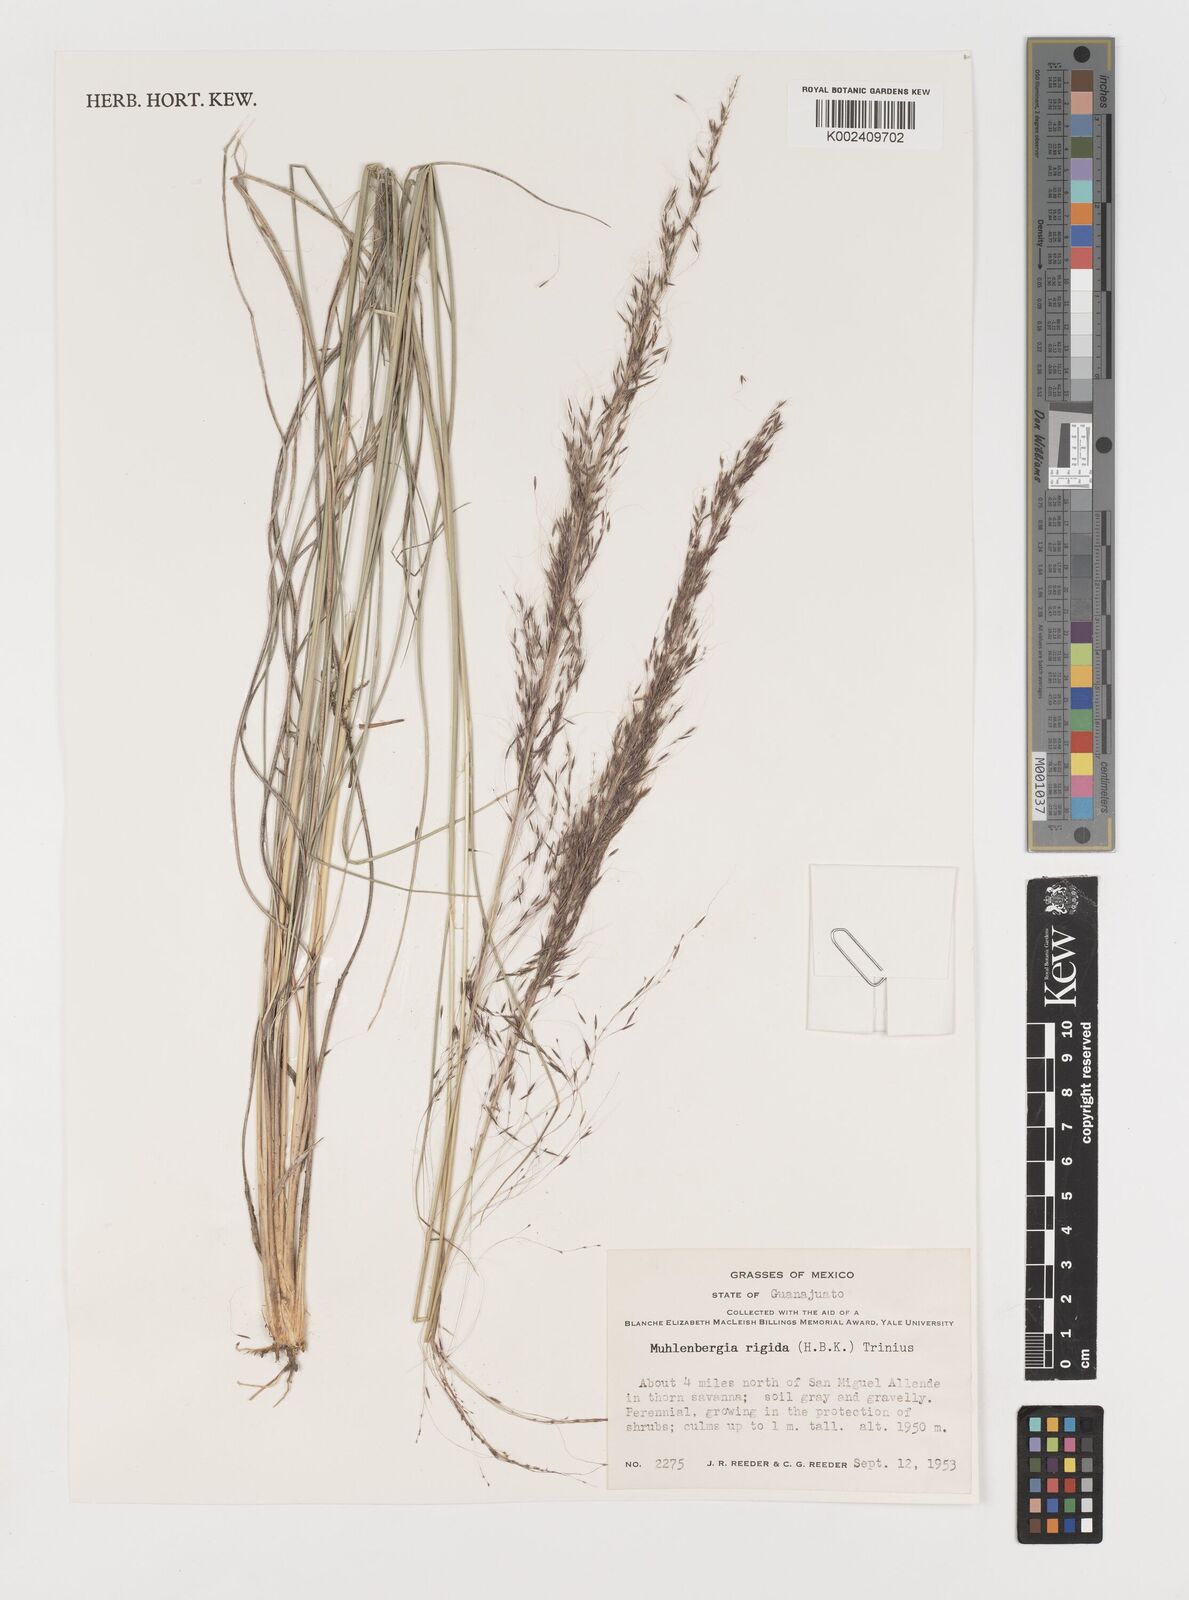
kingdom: Plantae
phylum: Tracheophyta
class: Liliopsida
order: Poales
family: Poaceae
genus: Muhlenbergia
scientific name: Muhlenbergia rigida
